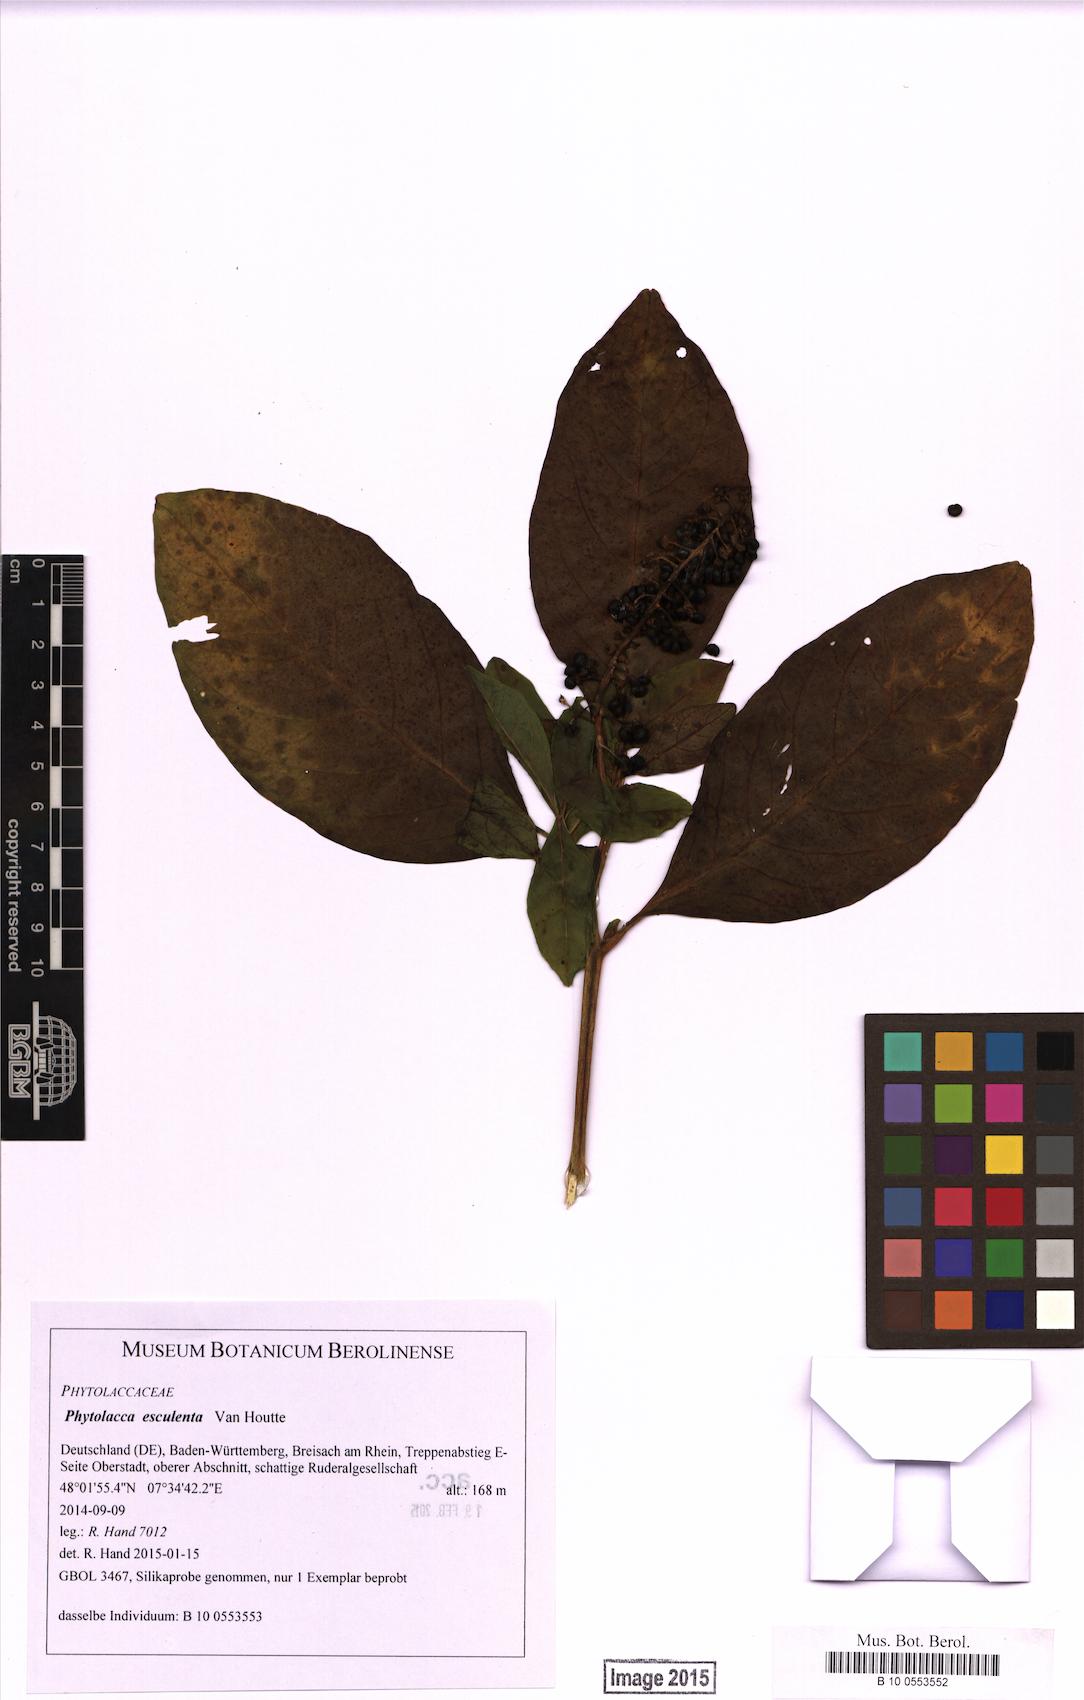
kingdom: Plantae
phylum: Tracheophyta
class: Magnoliopsida
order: Caryophyllales
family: Phytolaccaceae
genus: Phytolacca
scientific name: Phytolacca acinosa
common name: Indian pokeweed
